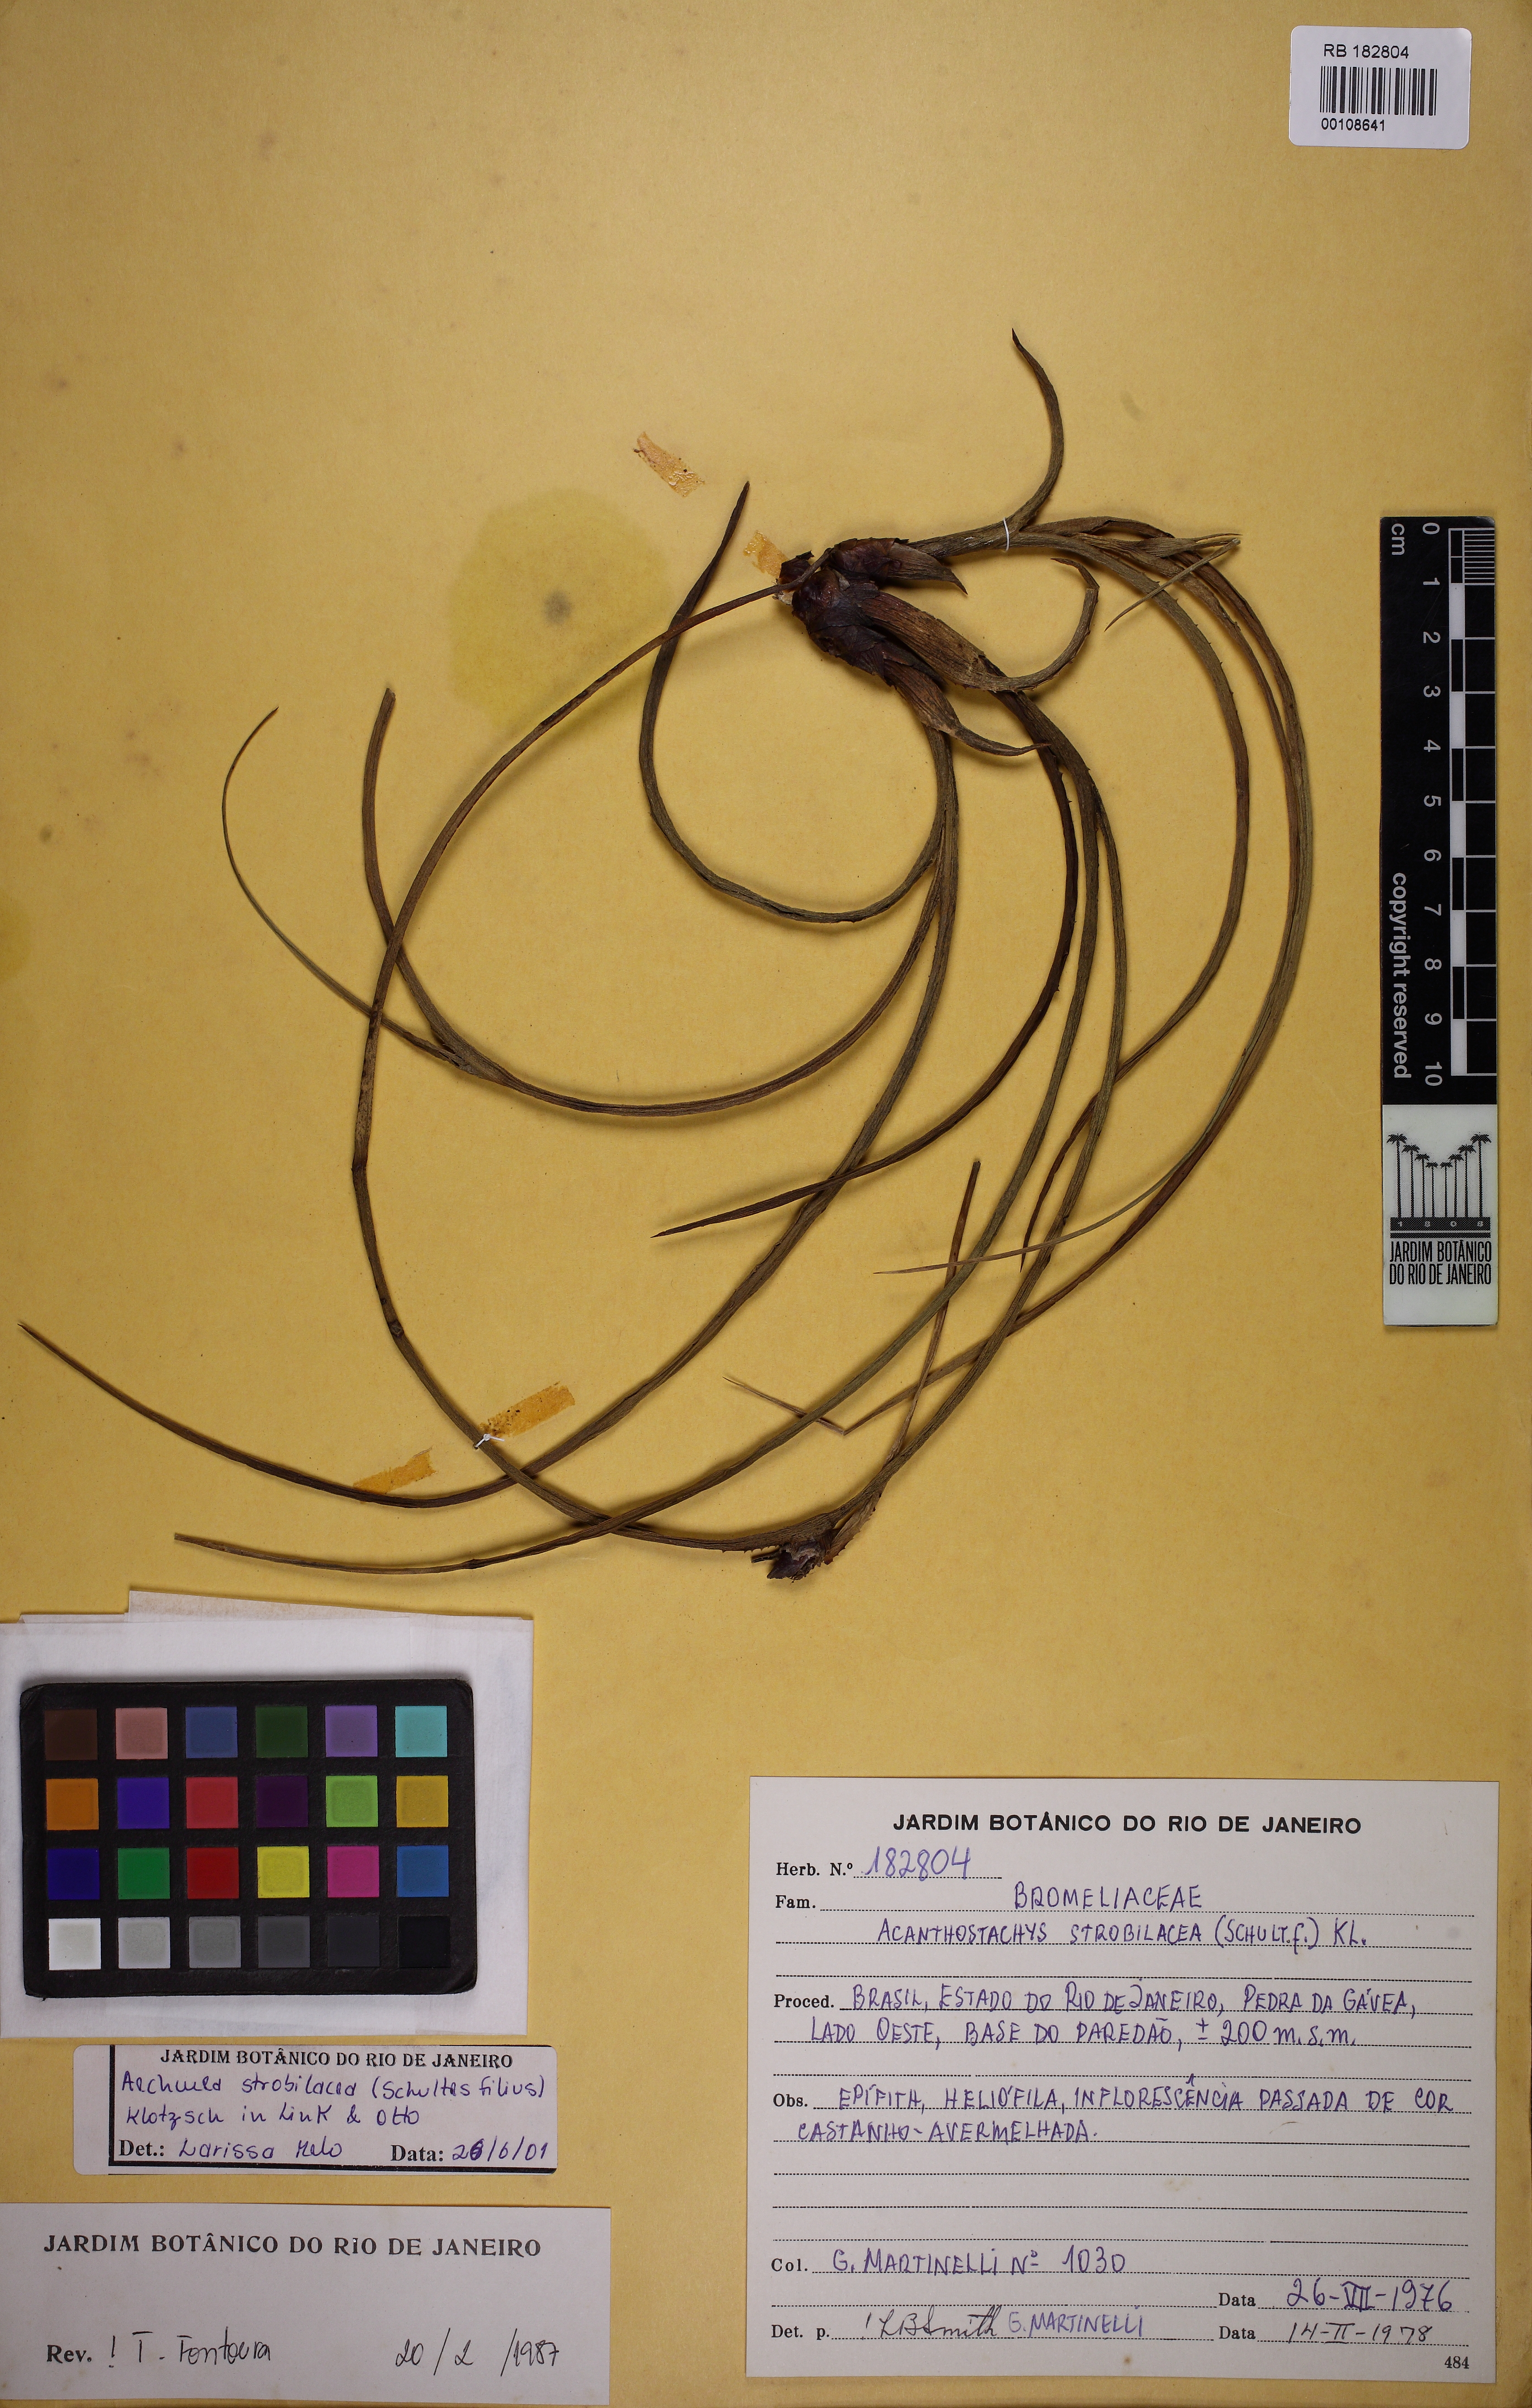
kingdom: Plantae
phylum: Tracheophyta
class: Liliopsida
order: Poales
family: Bromeliaceae
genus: Aechmea
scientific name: Aechmea strobilacea
